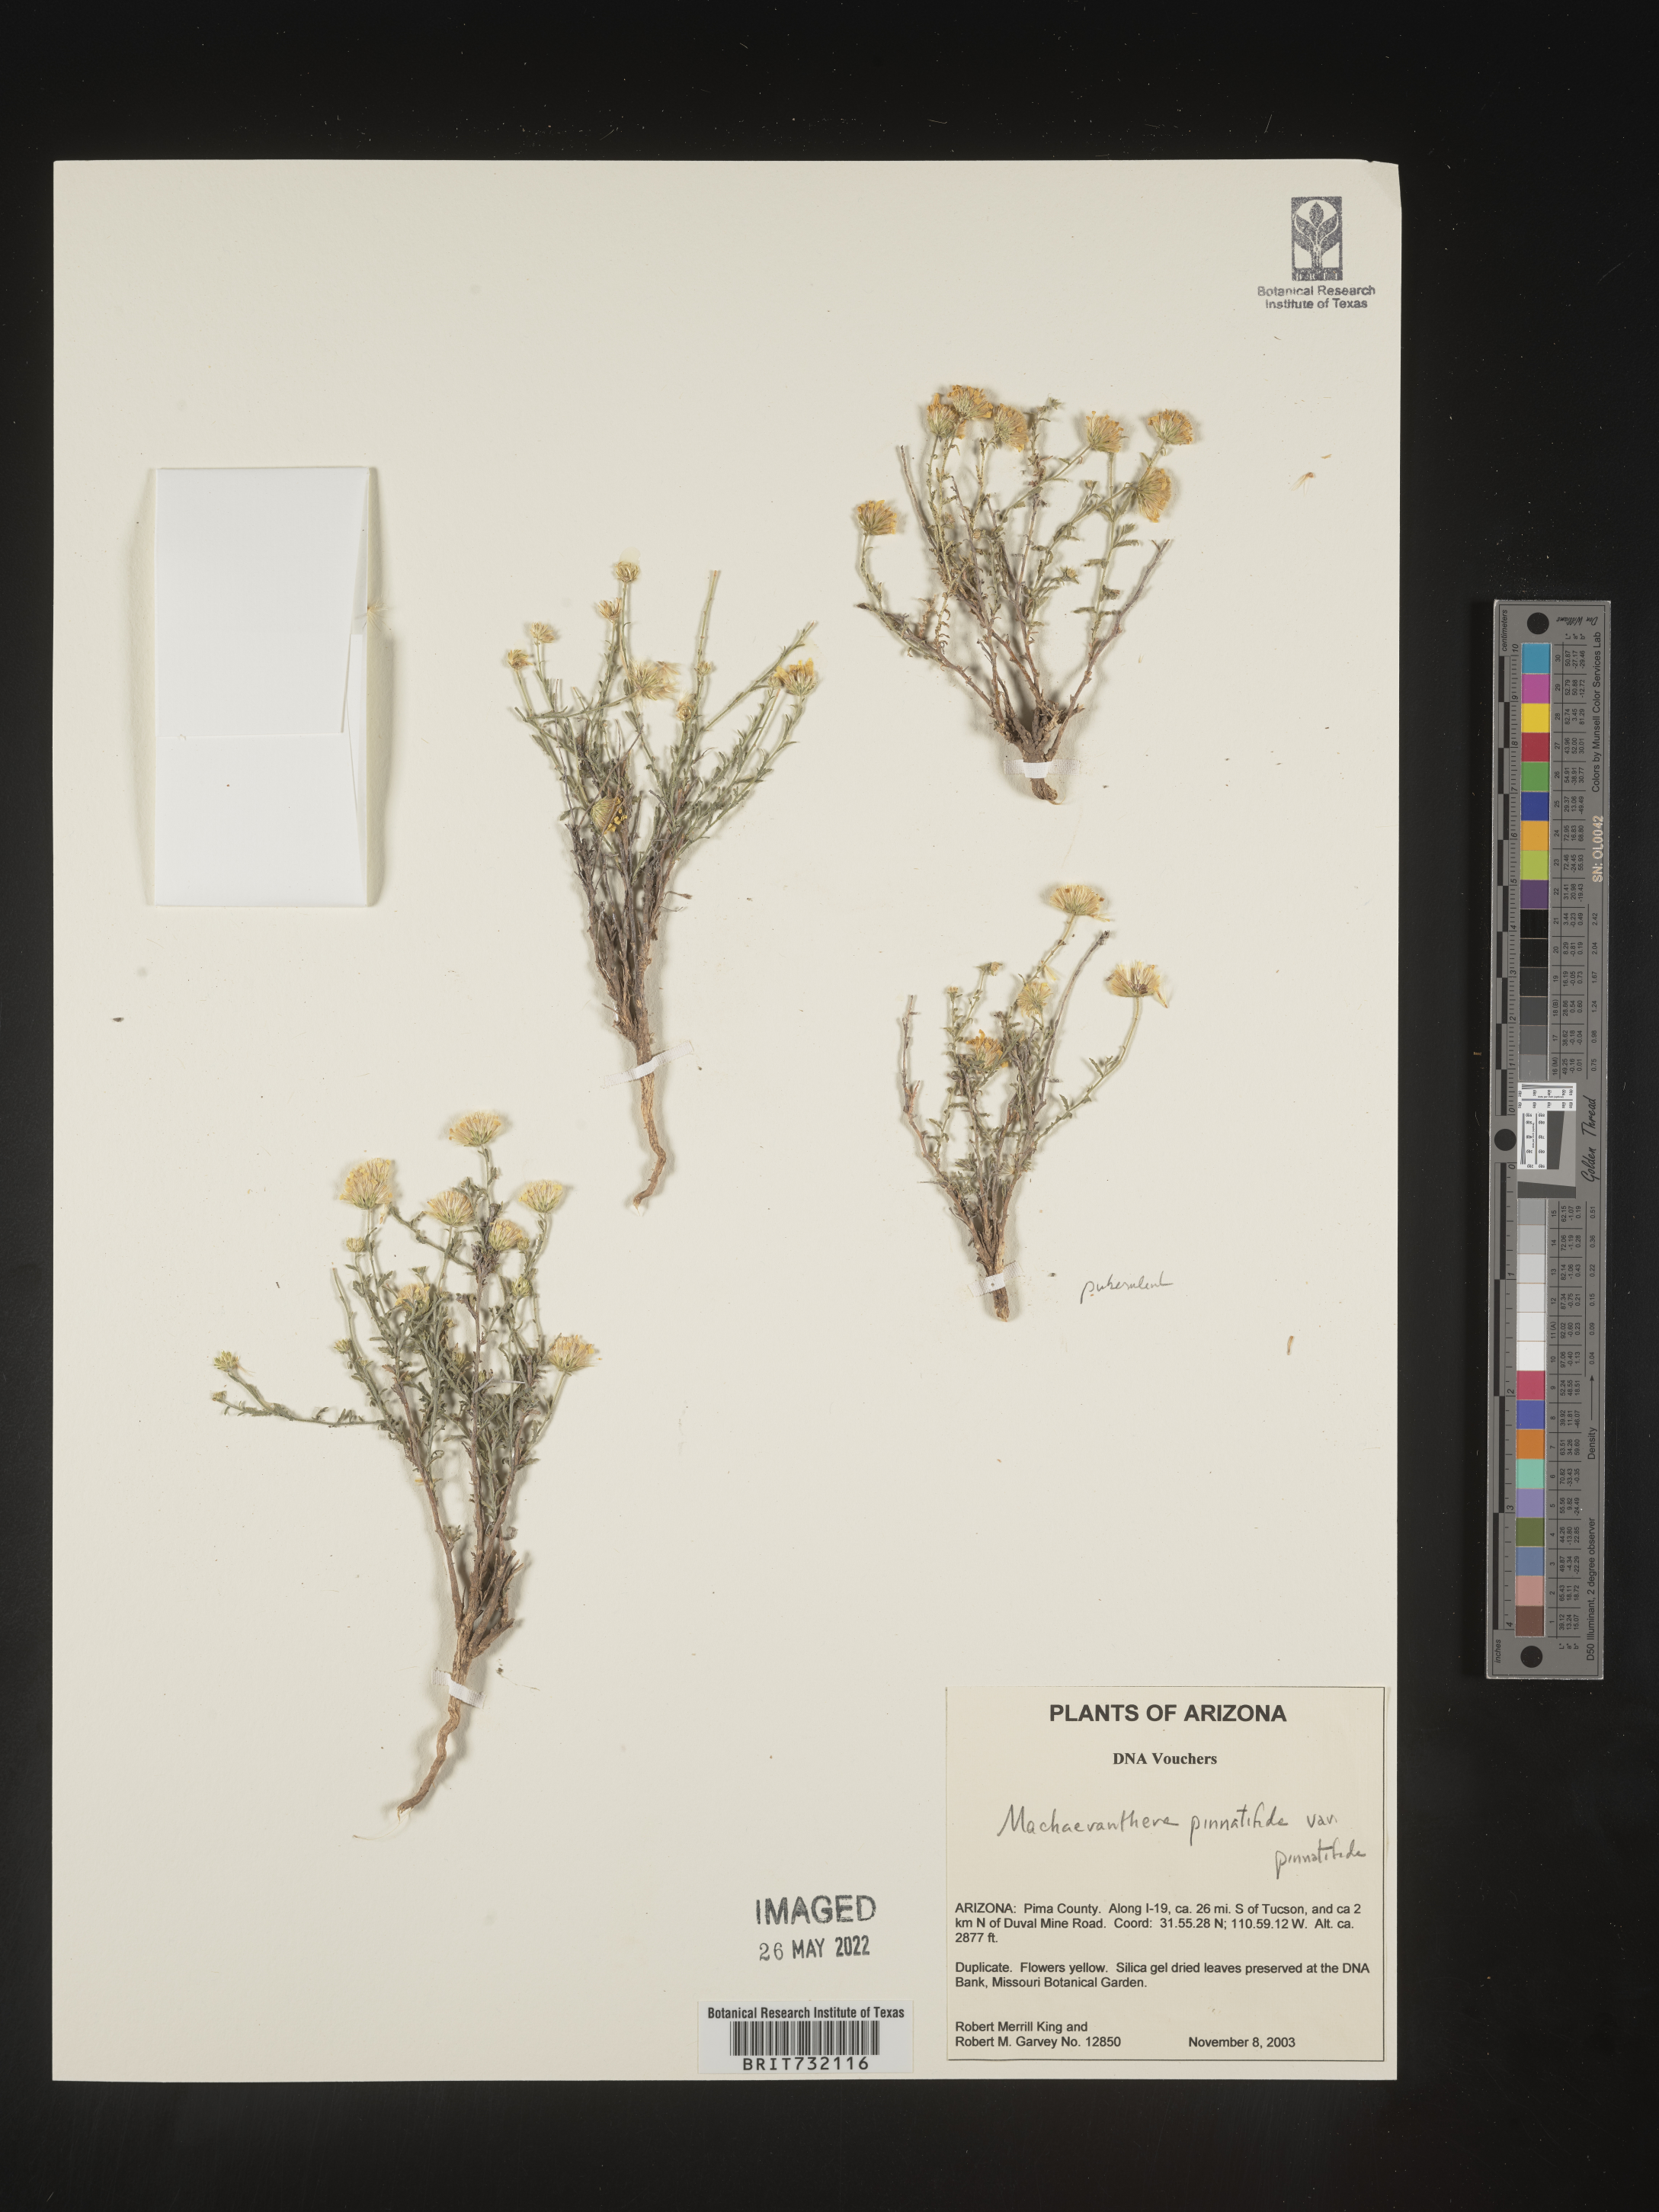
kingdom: Plantae
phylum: Tracheophyta
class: Magnoliopsida
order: Asterales
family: Asteraceae
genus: Xanthisma
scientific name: Xanthisma spinulosum
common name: Spiny goldenweed
